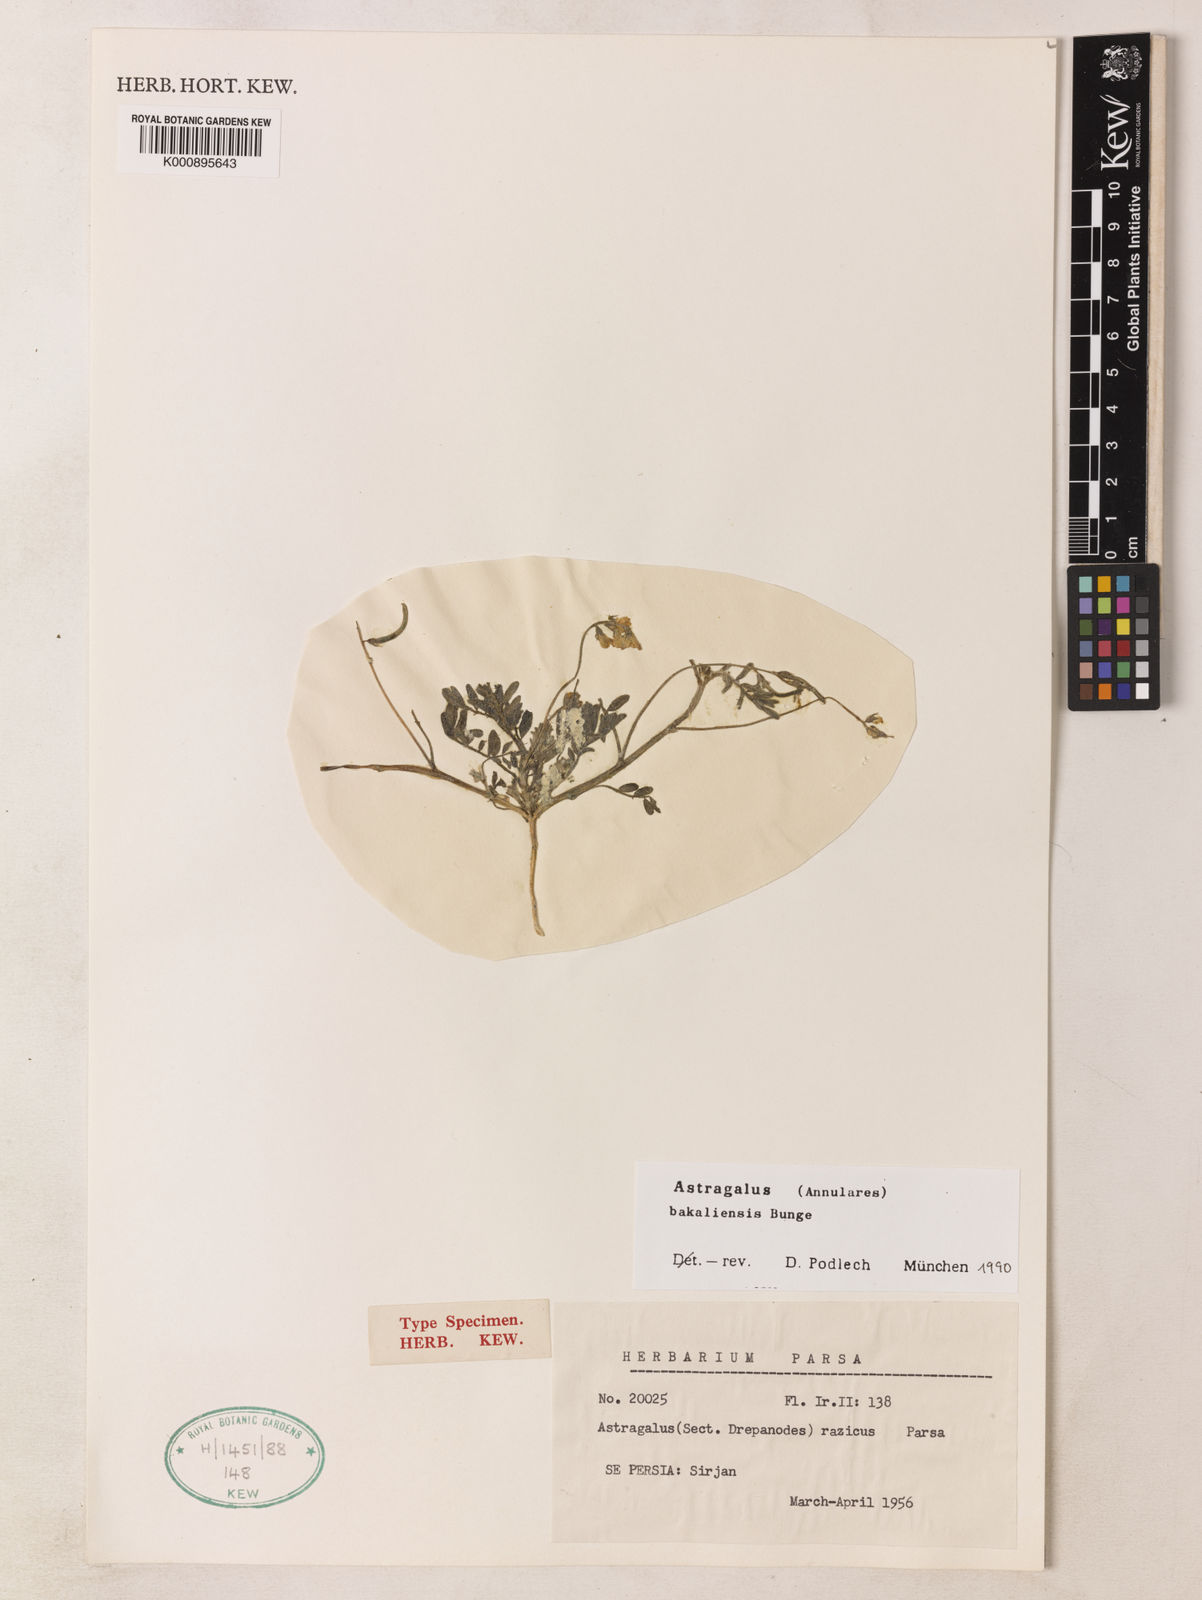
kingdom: Plantae
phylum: Tracheophyta
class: Magnoliopsida
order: Fabales
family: Fabaceae
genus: Astragalus
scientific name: Astragalus bakaliensis
